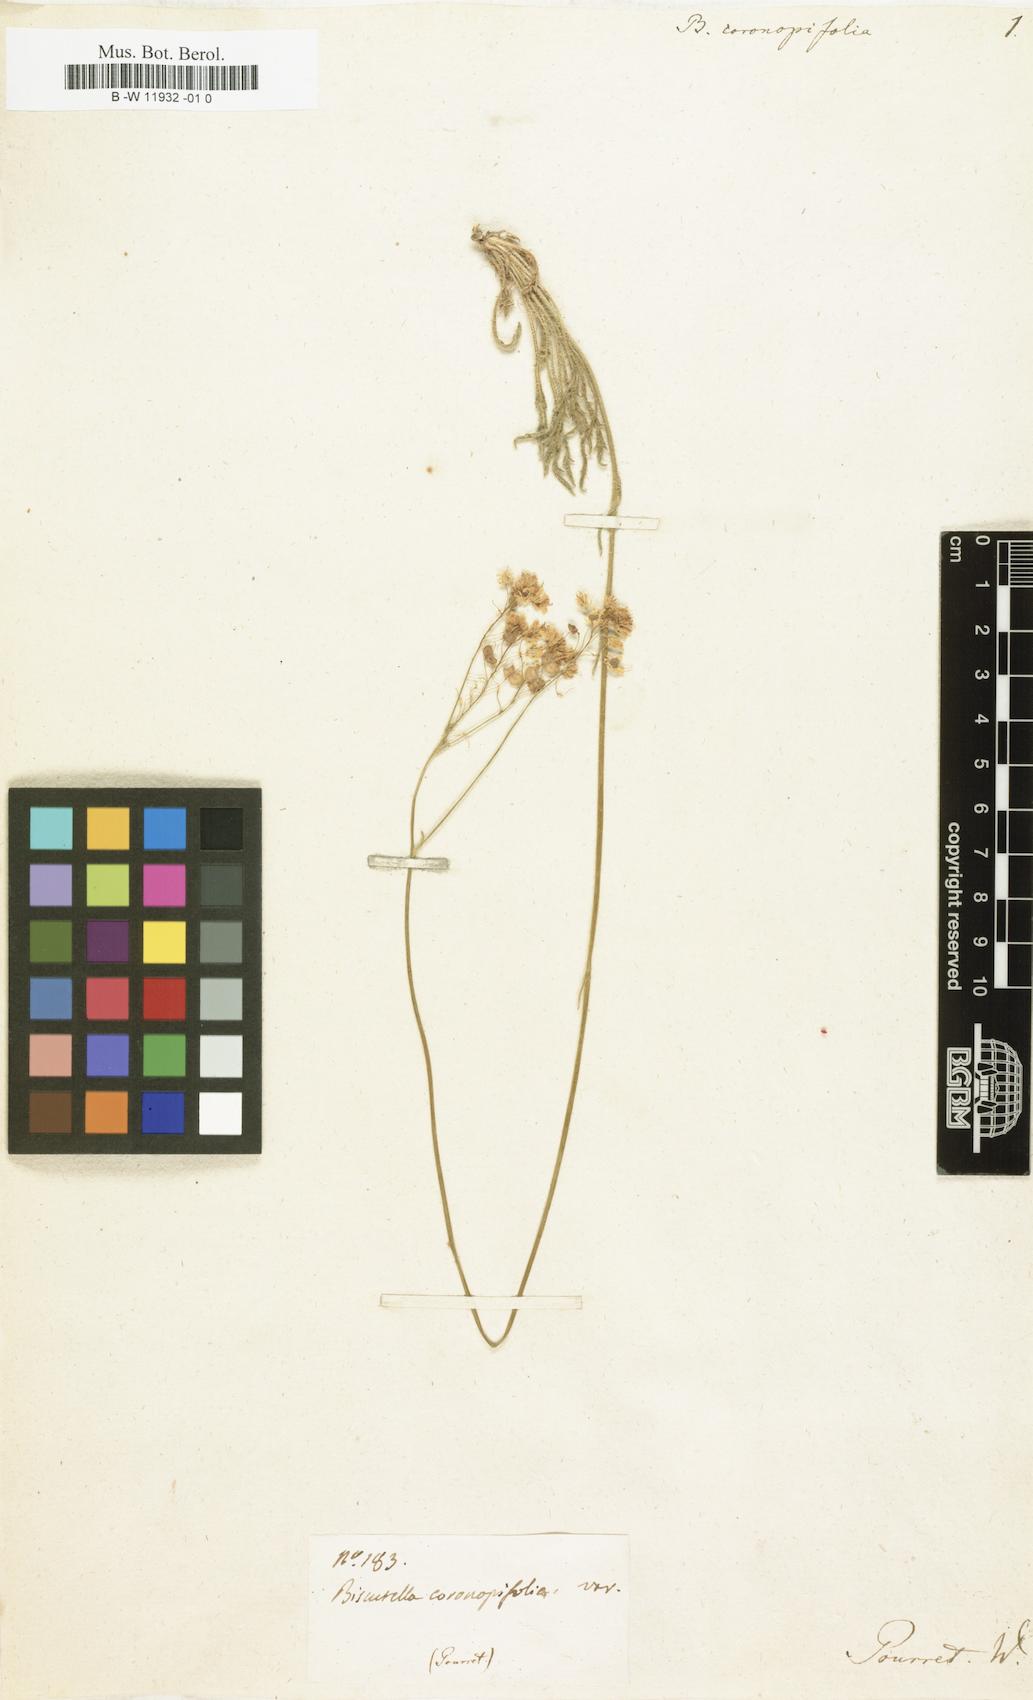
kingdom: Plantae
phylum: Tracheophyta
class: Magnoliopsida
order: Brassicales
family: Brassicaceae
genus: Biscutella
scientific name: Biscutella coronopifolia
